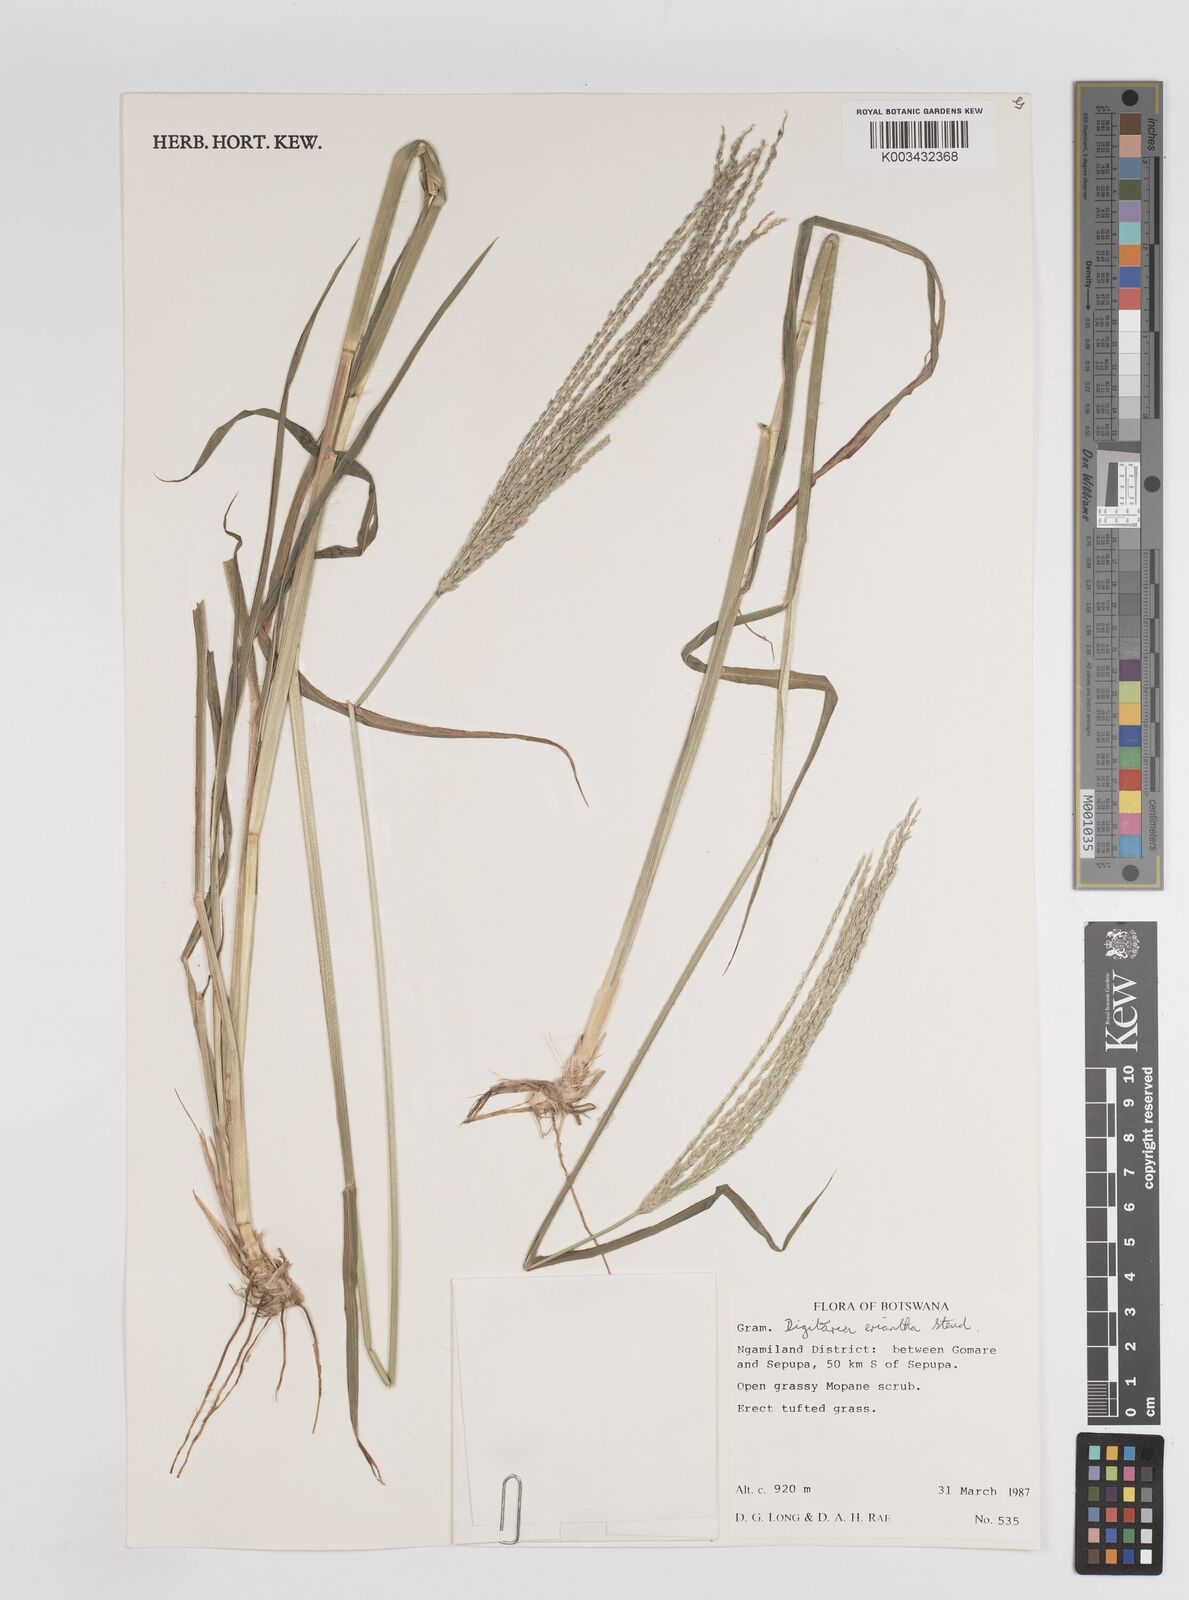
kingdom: Plantae
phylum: Tracheophyta
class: Liliopsida
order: Poales
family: Poaceae
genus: Digitaria
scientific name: Digitaria eriantha
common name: Digitgrass
